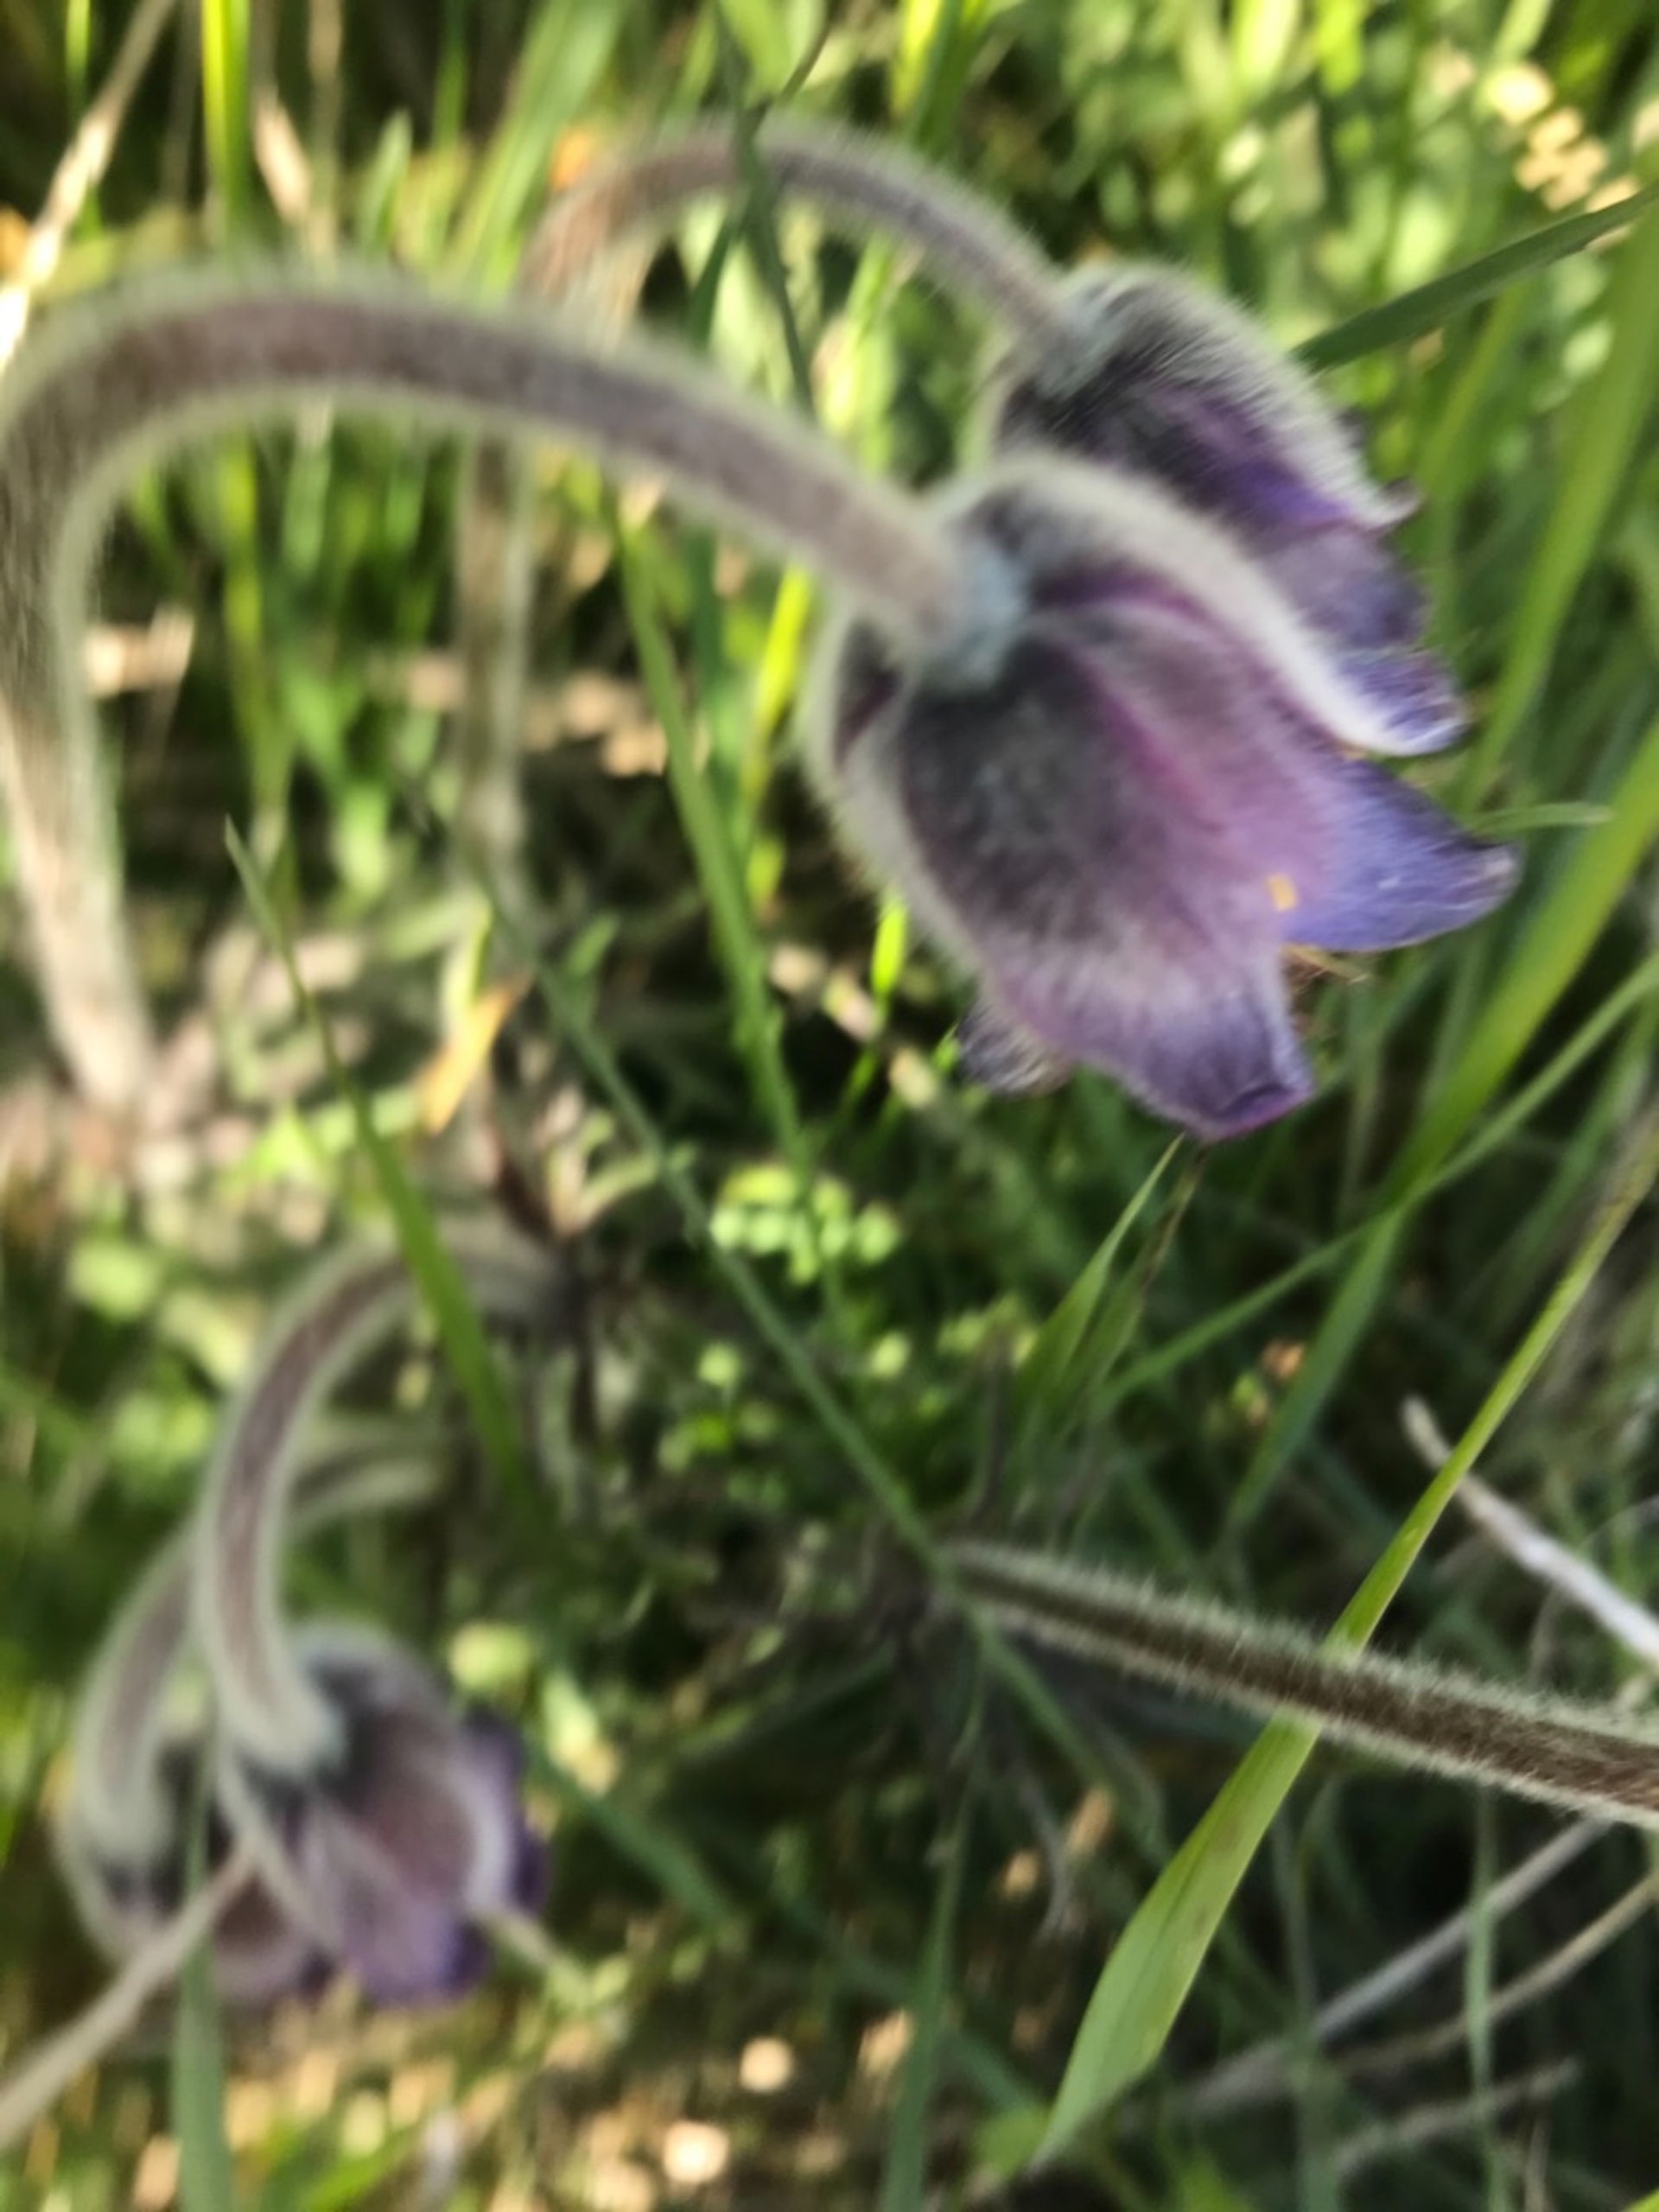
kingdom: Plantae
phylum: Tracheophyta
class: Magnoliopsida
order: Ranunculales
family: Ranunculaceae
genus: Pulsatilla
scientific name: Pulsatilla pratensis
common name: Nikkende kobjælde
